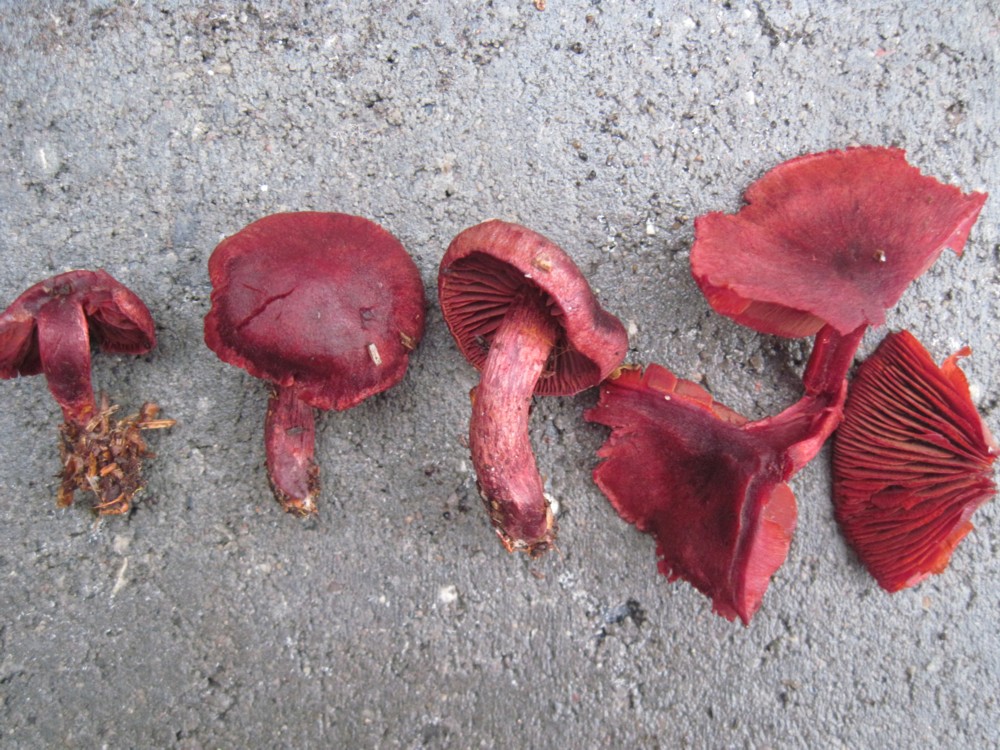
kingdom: Fungi
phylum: Basidiomycota
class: Agaricomycetes
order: Agaricales
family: Cortinariaceae
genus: Cortinarius
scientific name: Cortinarius sanguineus
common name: Bloodred webcap
